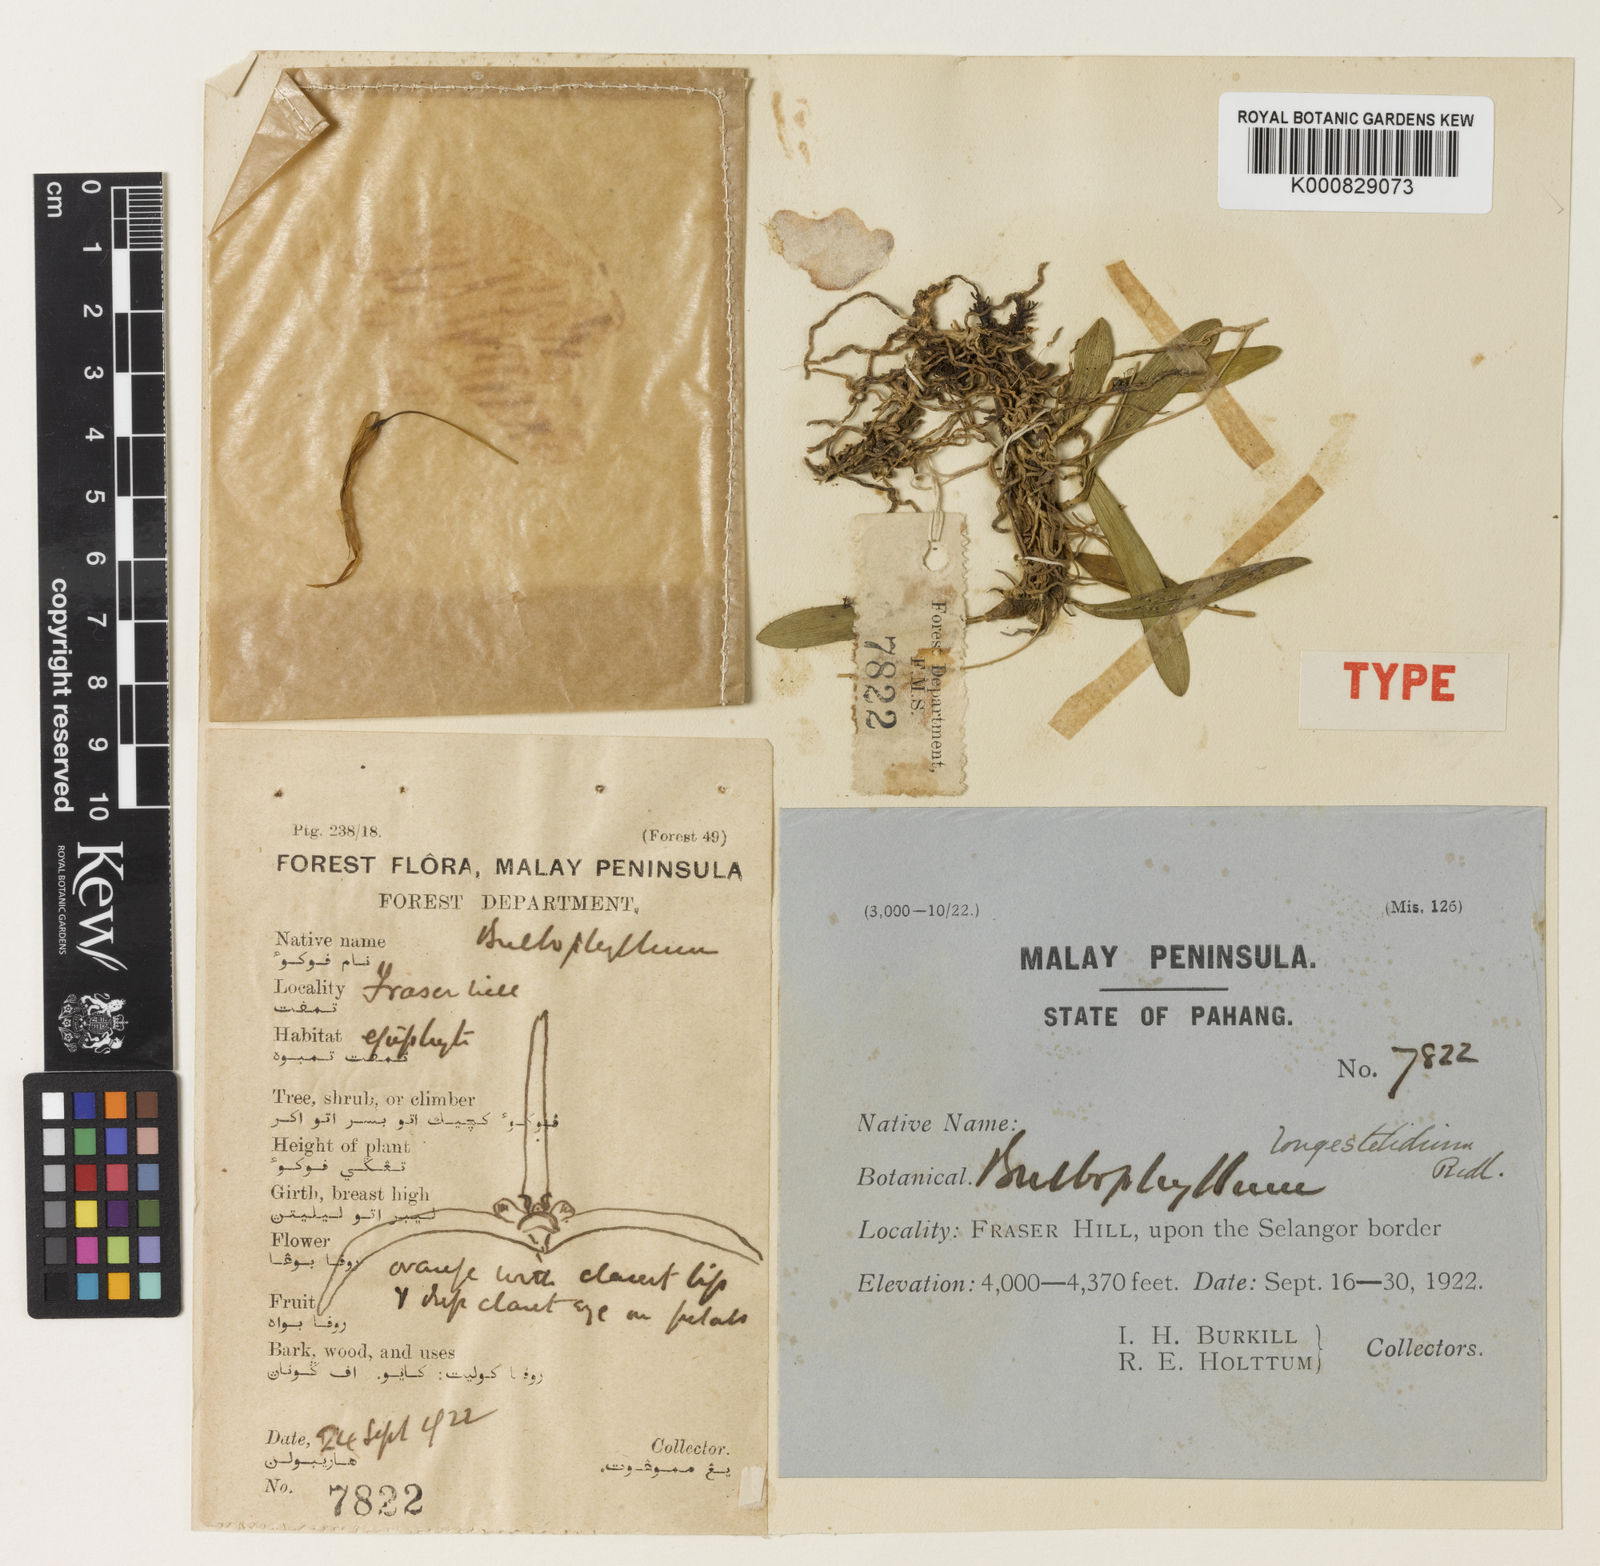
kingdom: Plantae
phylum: Tracheophyta
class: Liliopsida
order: Asparagales
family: Orchidaceae
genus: Bulbophyllum
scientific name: Bulbophyllum longistelidium
